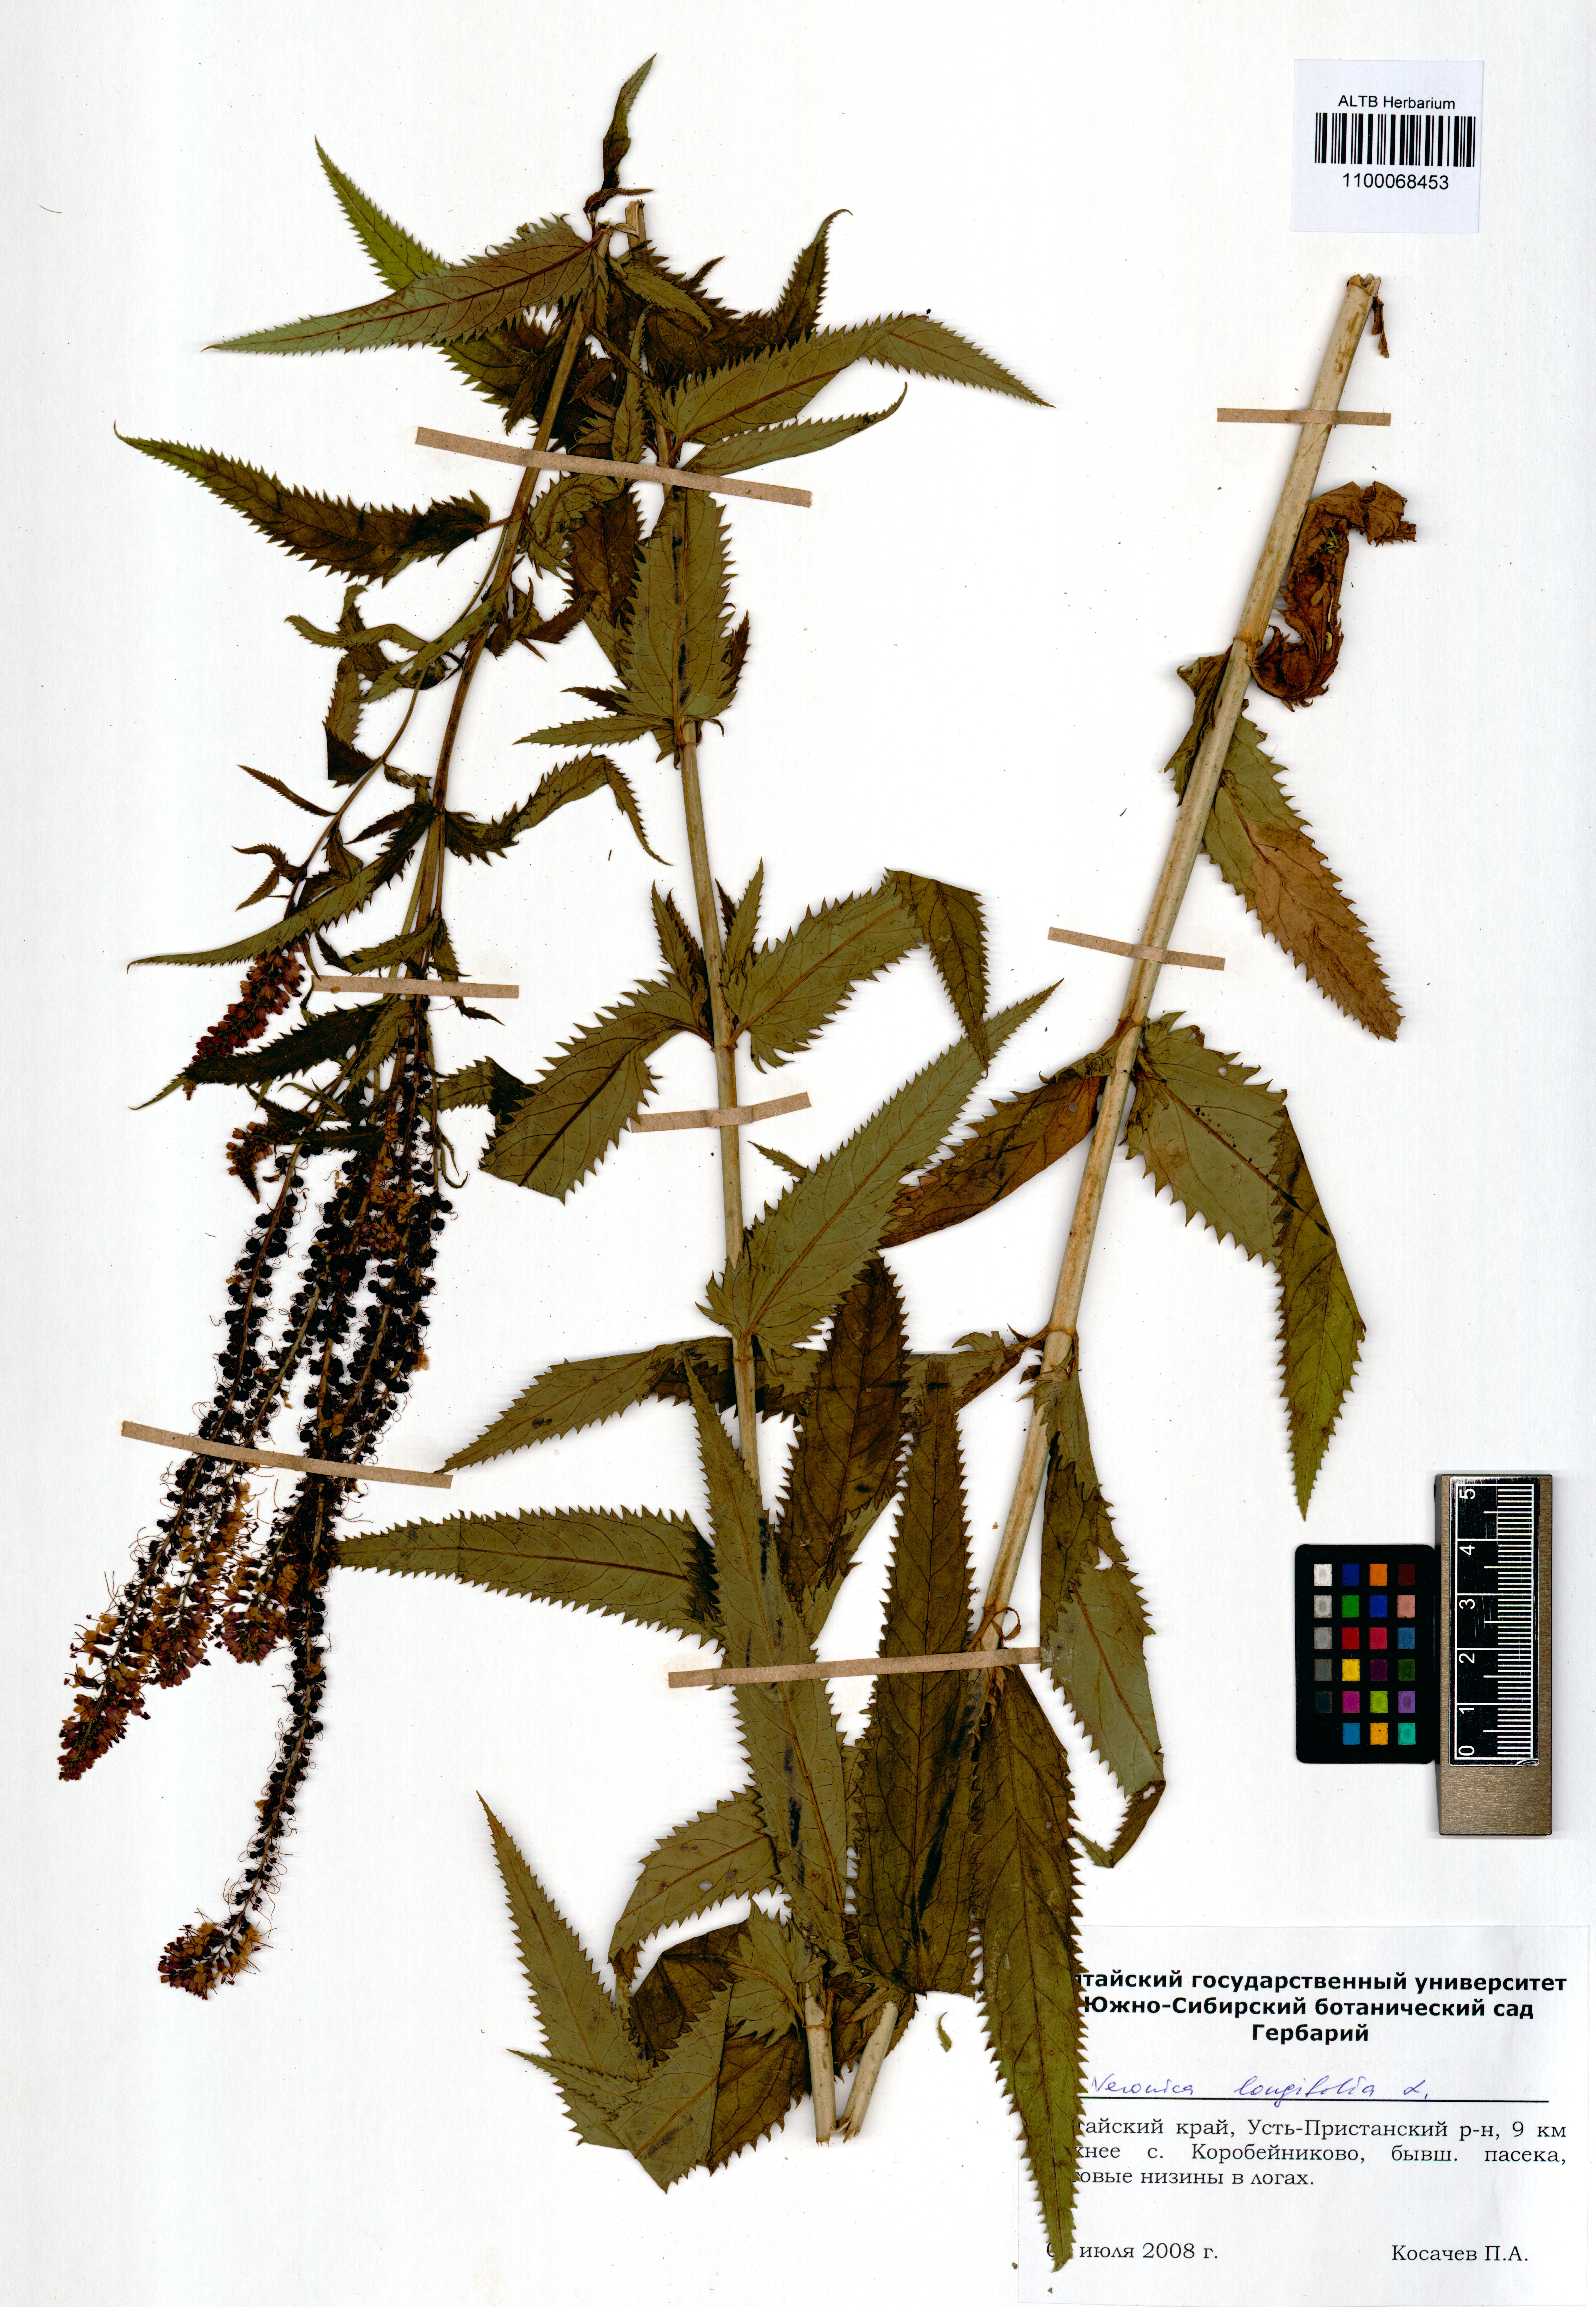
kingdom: Plantae
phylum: Tracheophyta
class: Magnoliopsida
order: Lamiales
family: Plantaginaceae
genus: Veronica
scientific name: Veronica longifolia
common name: Garden speedwell
